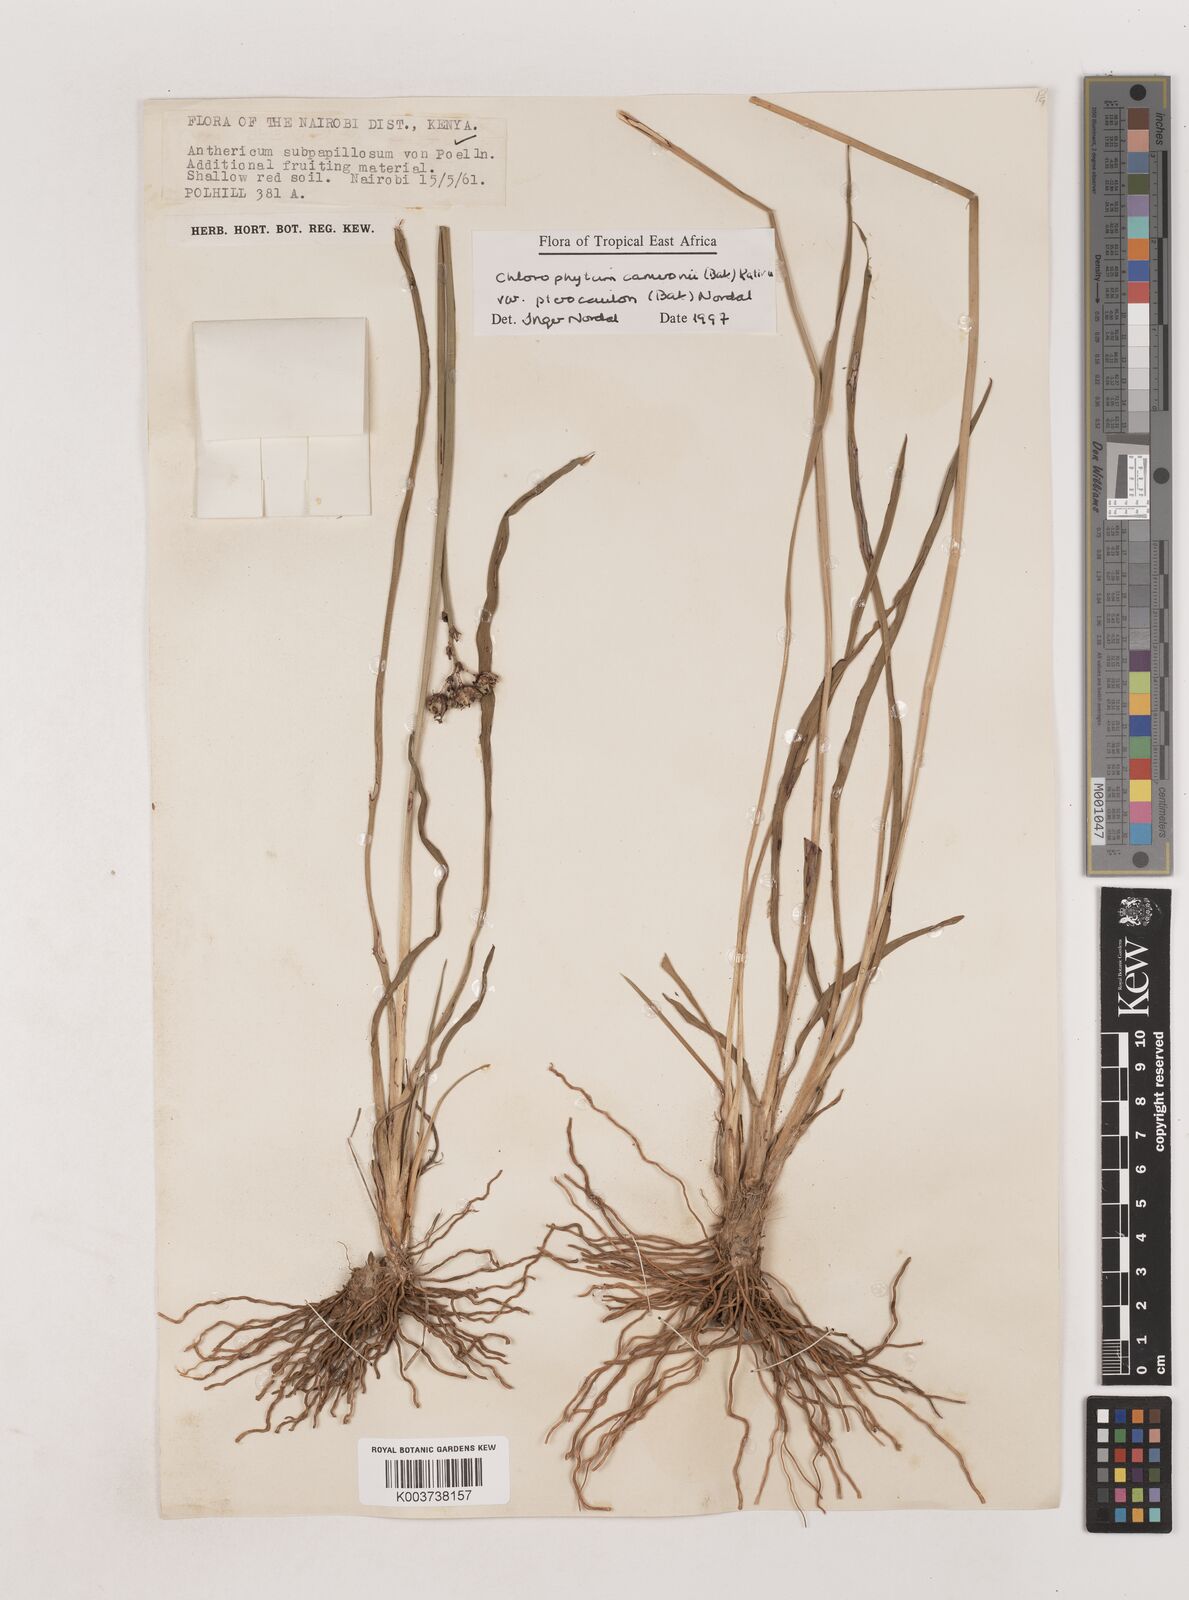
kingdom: Plantae
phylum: Tracheophyta
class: Liliopsida
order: Asparagales
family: Asparagaceae
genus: Chlorophytum
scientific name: Chlorophytum cameronii
